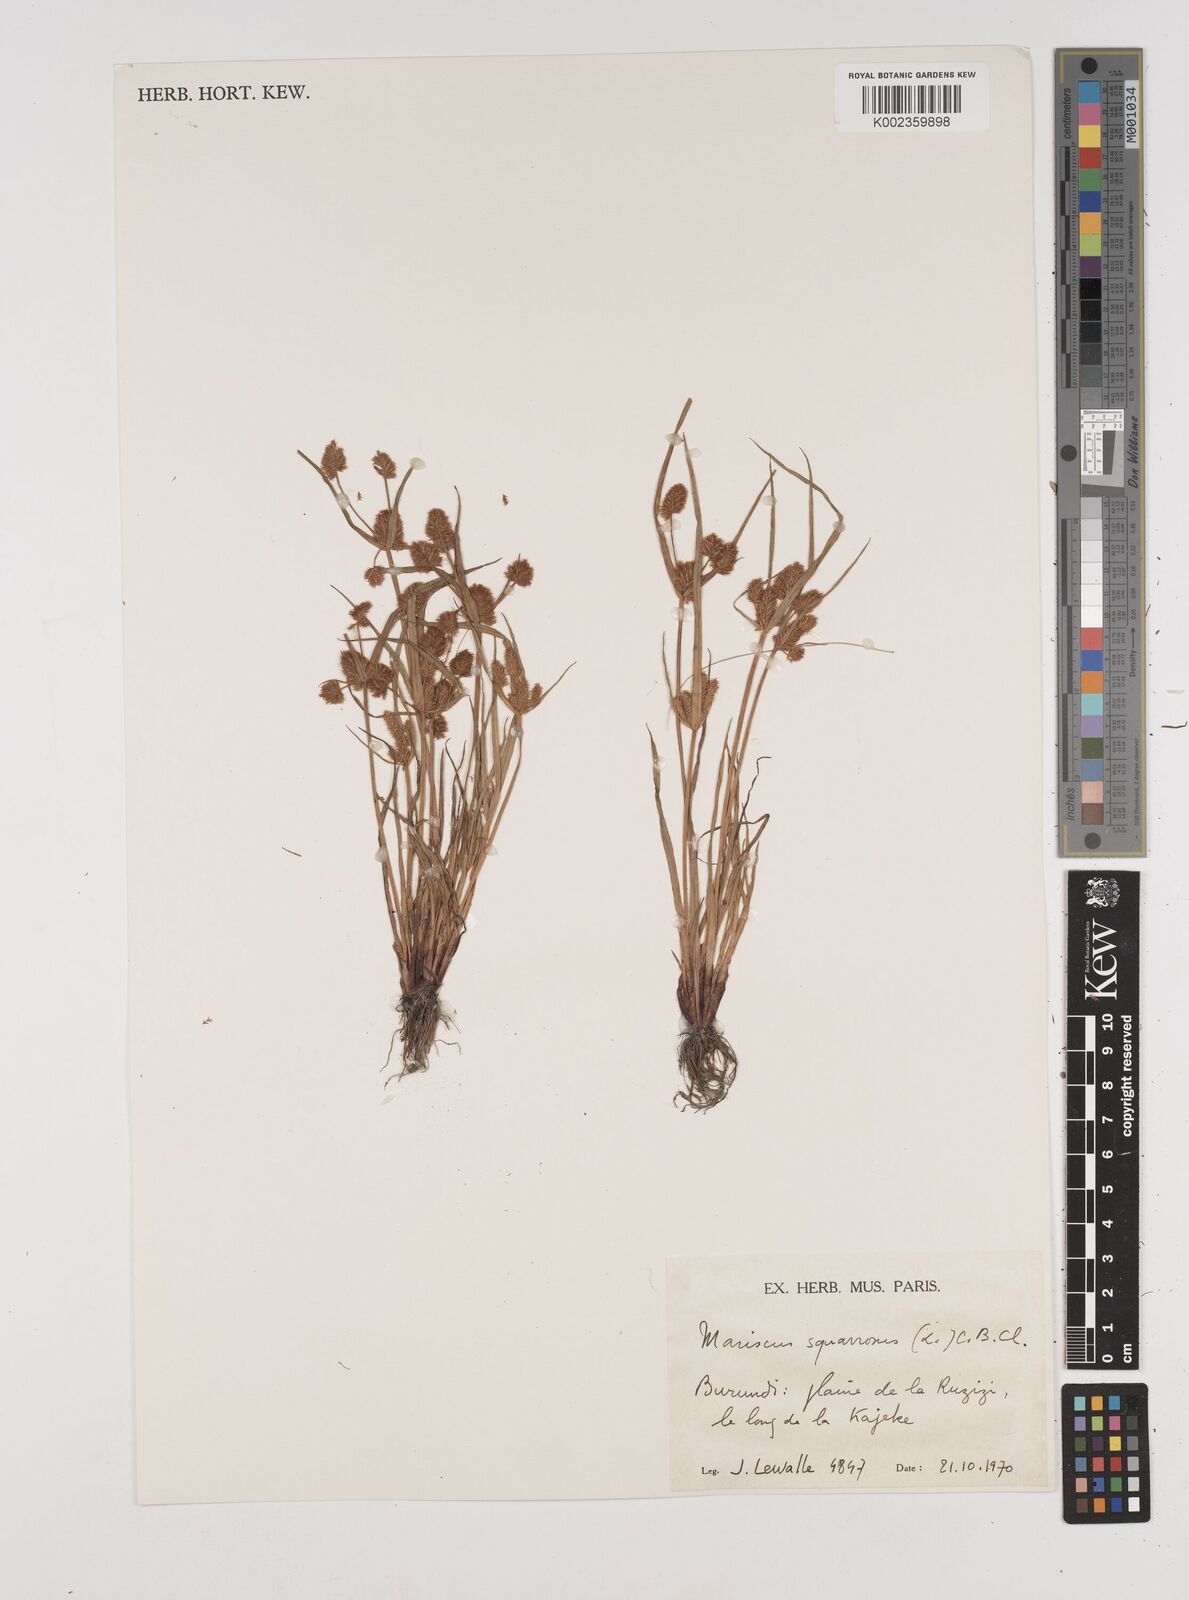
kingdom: Plantae
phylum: Tracheophyta
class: Liliopsida
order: Poales
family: Cyperaceae
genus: Cyperus
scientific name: Cyperus squarrosus
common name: Awned cyperus
